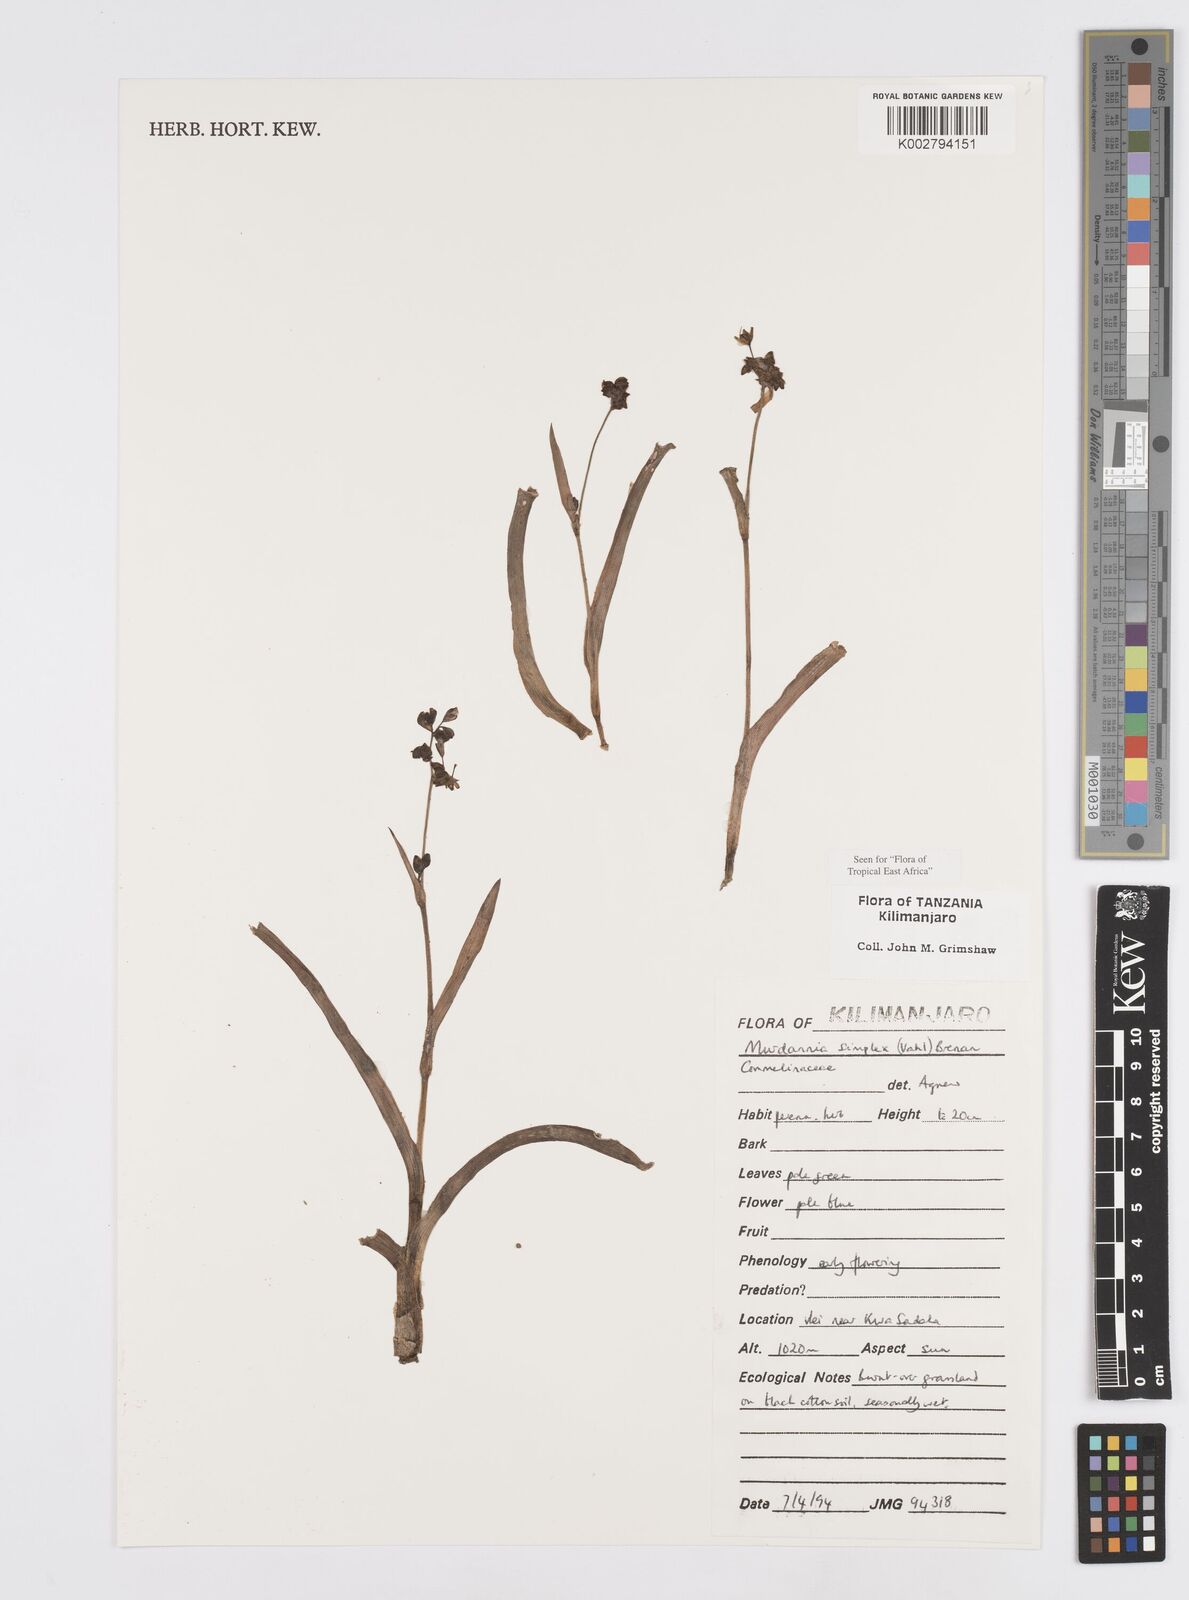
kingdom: Plantae
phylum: Tracheophyta
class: Liliopsida
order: Commelinales
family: Commelinaceae
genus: Murdannia
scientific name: Murdannia simplex
